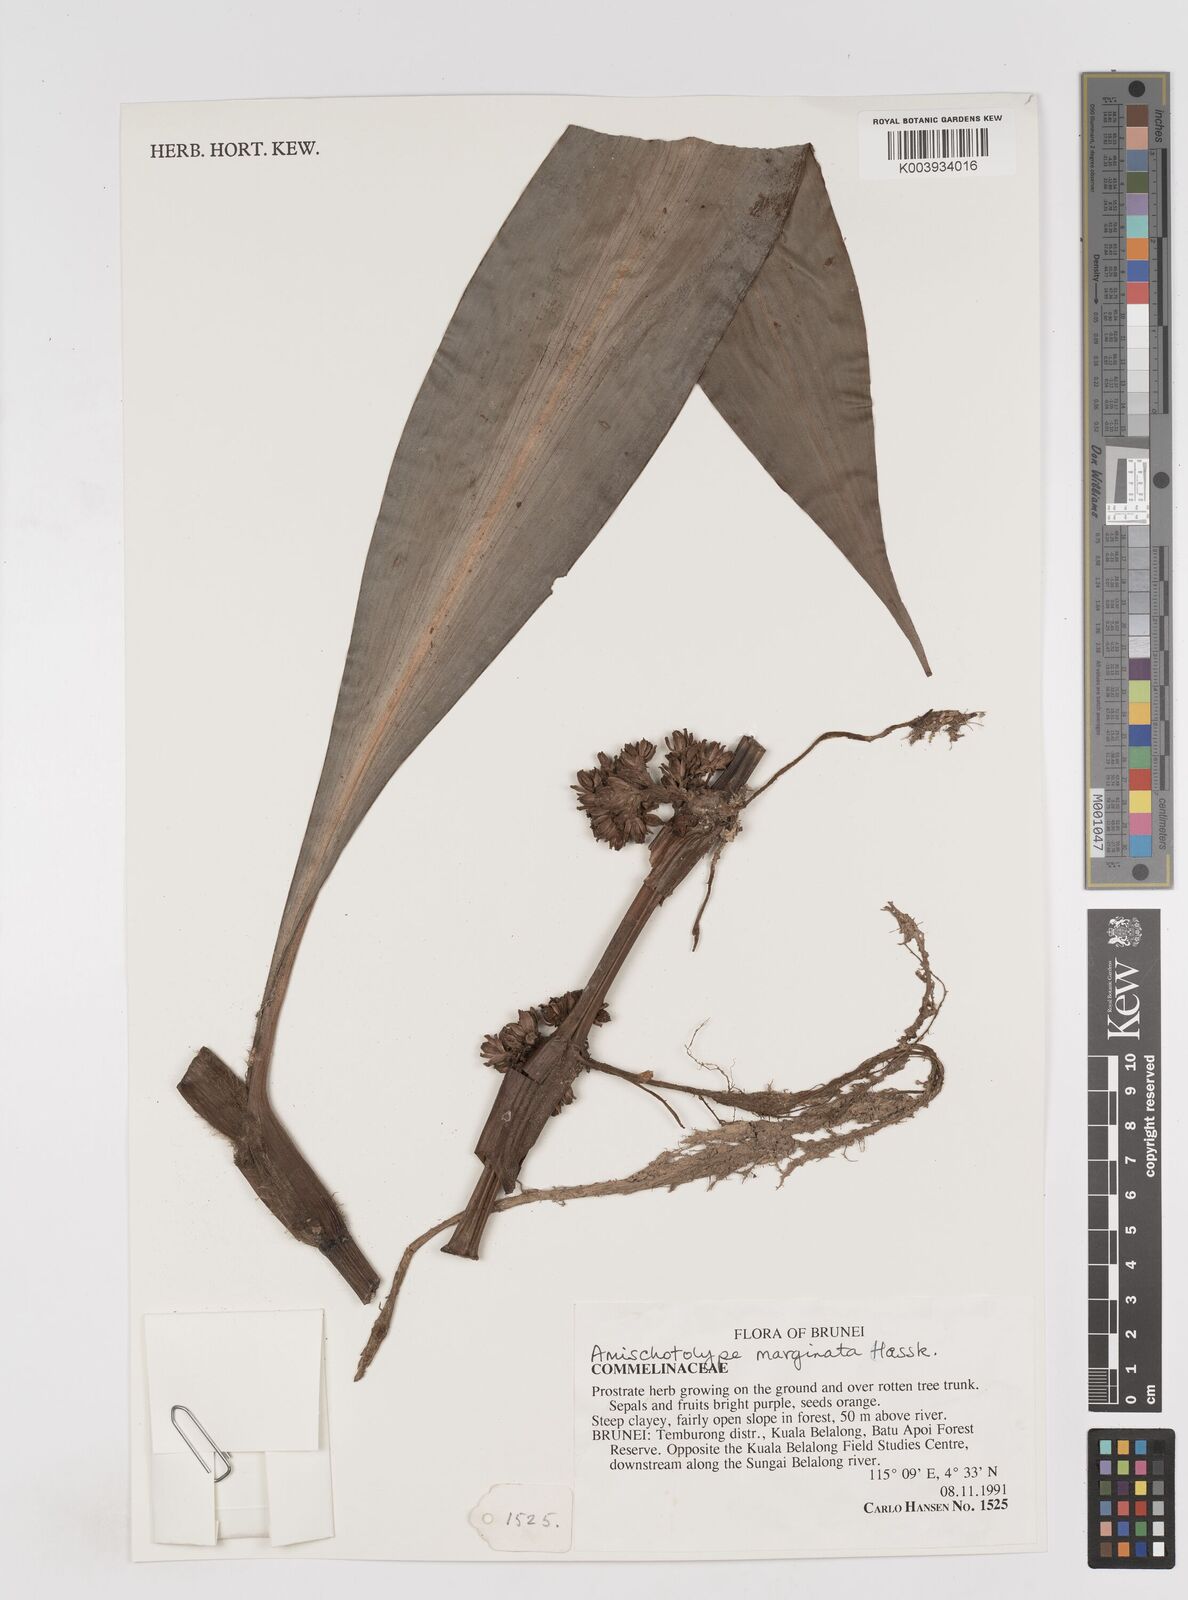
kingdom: Plantae
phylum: Tracheophyta
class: Liliopsida
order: Commelinales
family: Commelinaceae
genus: Amischotolype
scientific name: Amischotolype marginata
